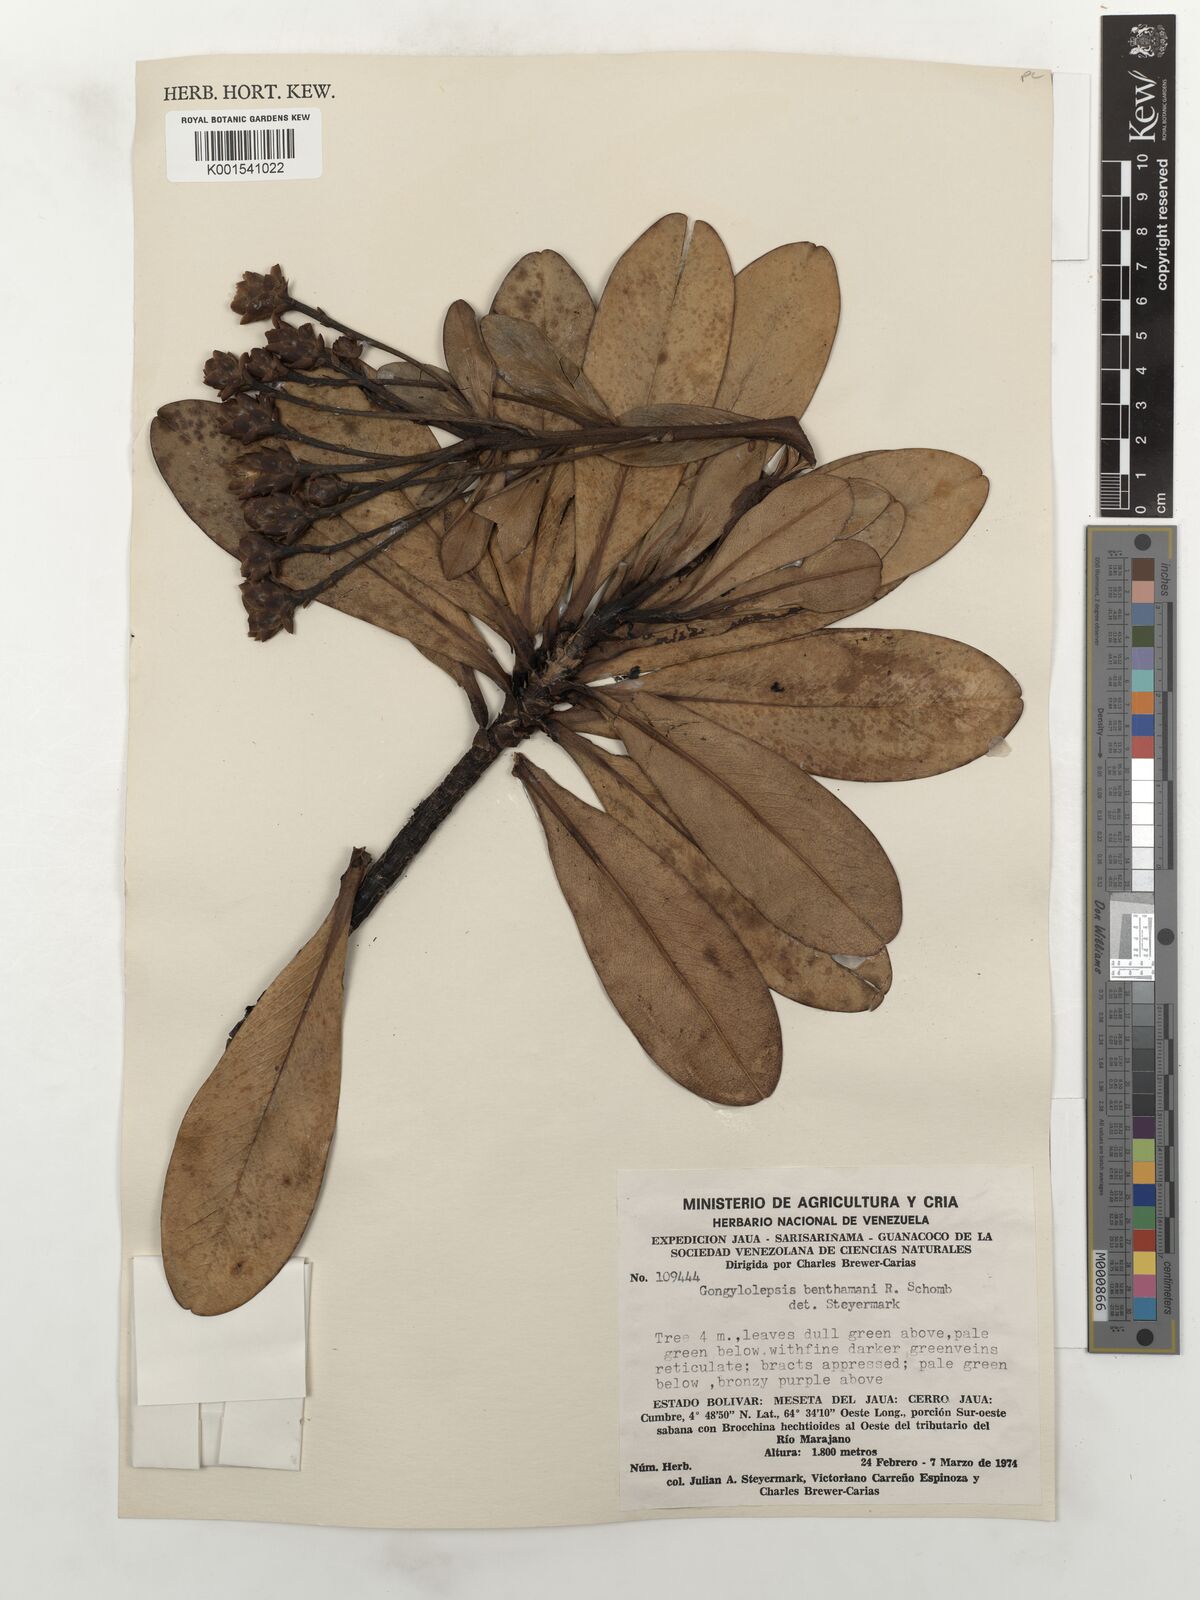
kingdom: Plantae
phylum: Tracheophyta
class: Magnoliopsida
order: Asterales
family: Asteraceae
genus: Gongylolepis
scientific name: Gongylolepis benthamiana
